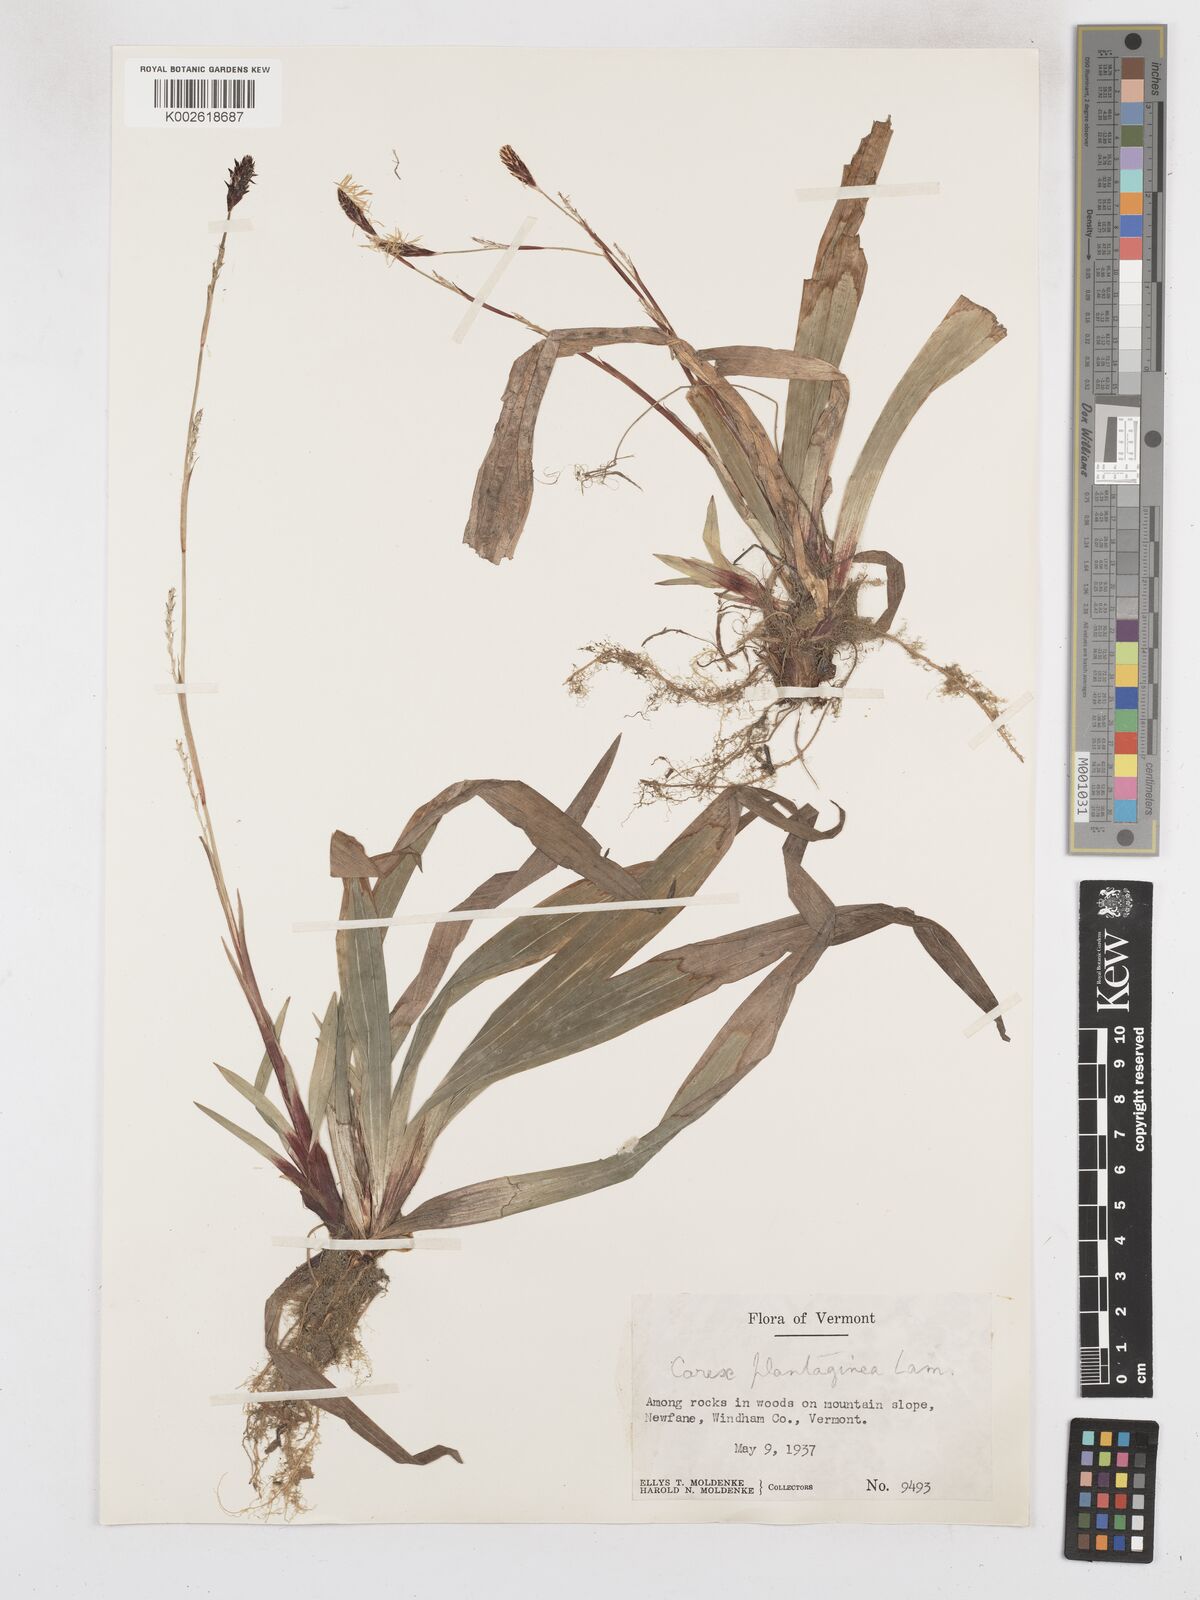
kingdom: Plantae
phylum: Tracheophyta
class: Liliopsida
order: Poales
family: Cyperaceae
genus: Carex
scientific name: Carex plantaginea
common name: Plantain-leaved sedge
